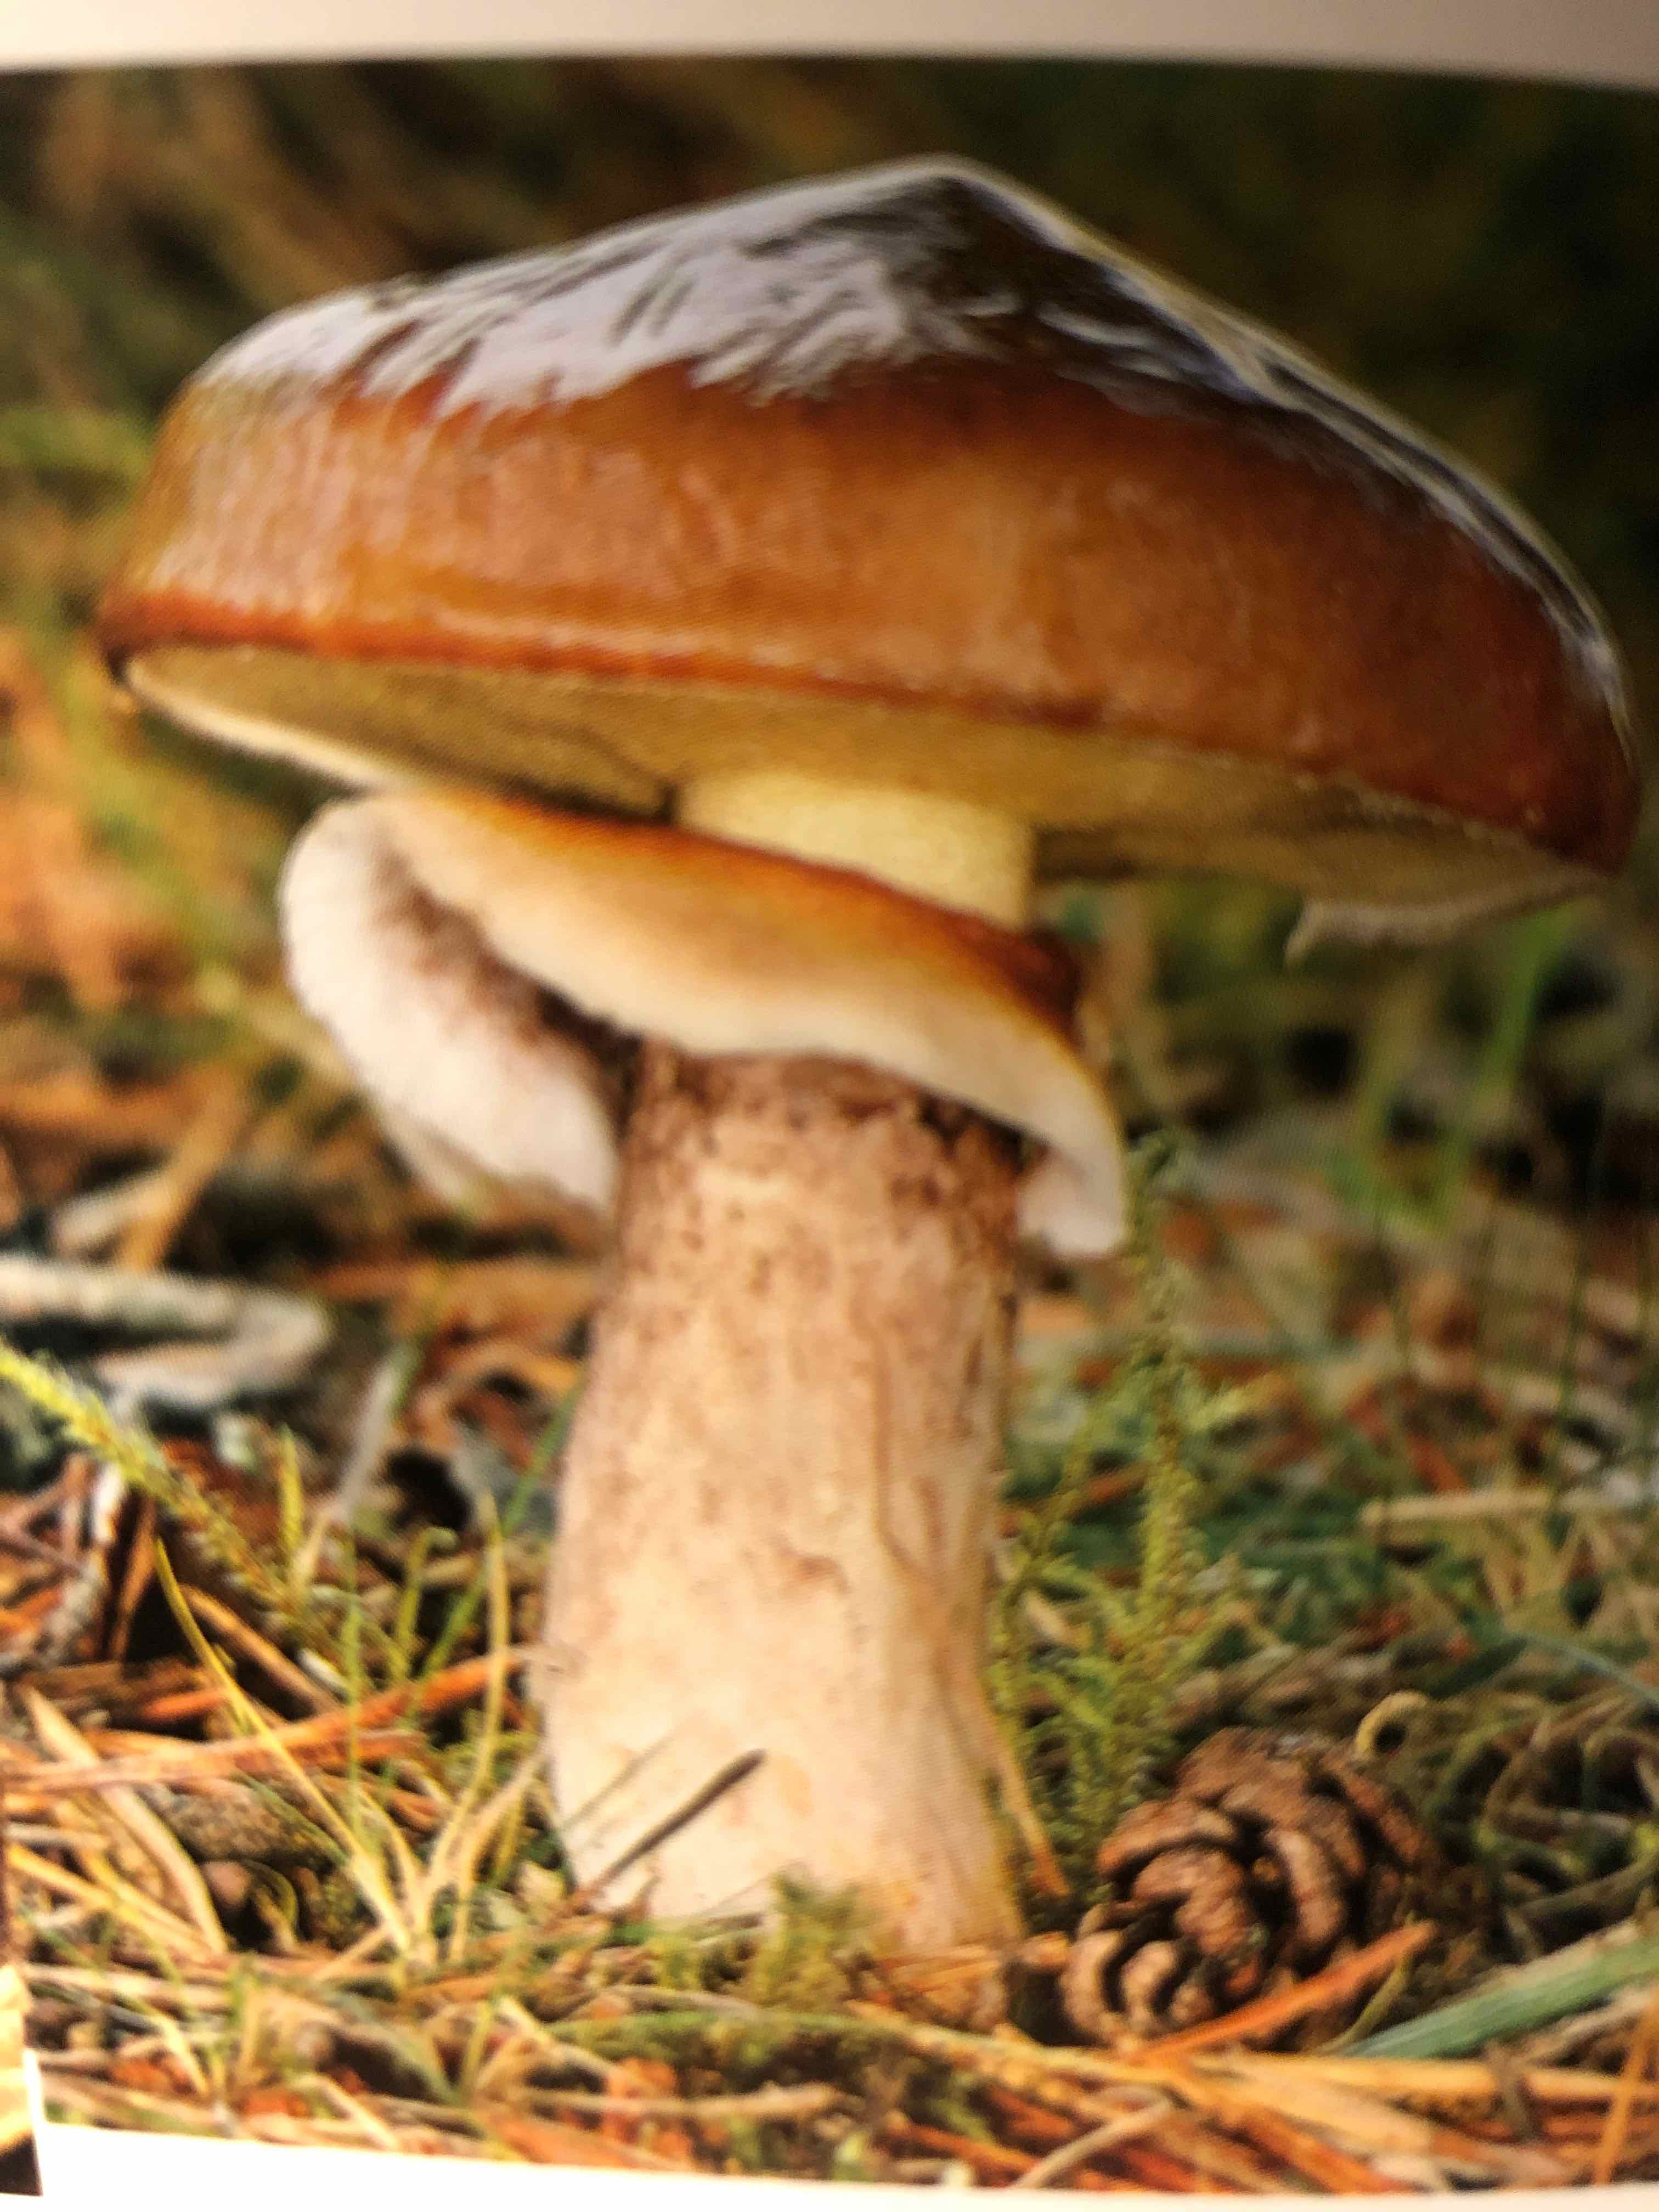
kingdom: Fungi
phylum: Basidiomycota
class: Agaricomycetes
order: Boletales
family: Suillaceae
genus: Suillus
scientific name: Suillus grevillei
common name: lærke-slimrørhat
